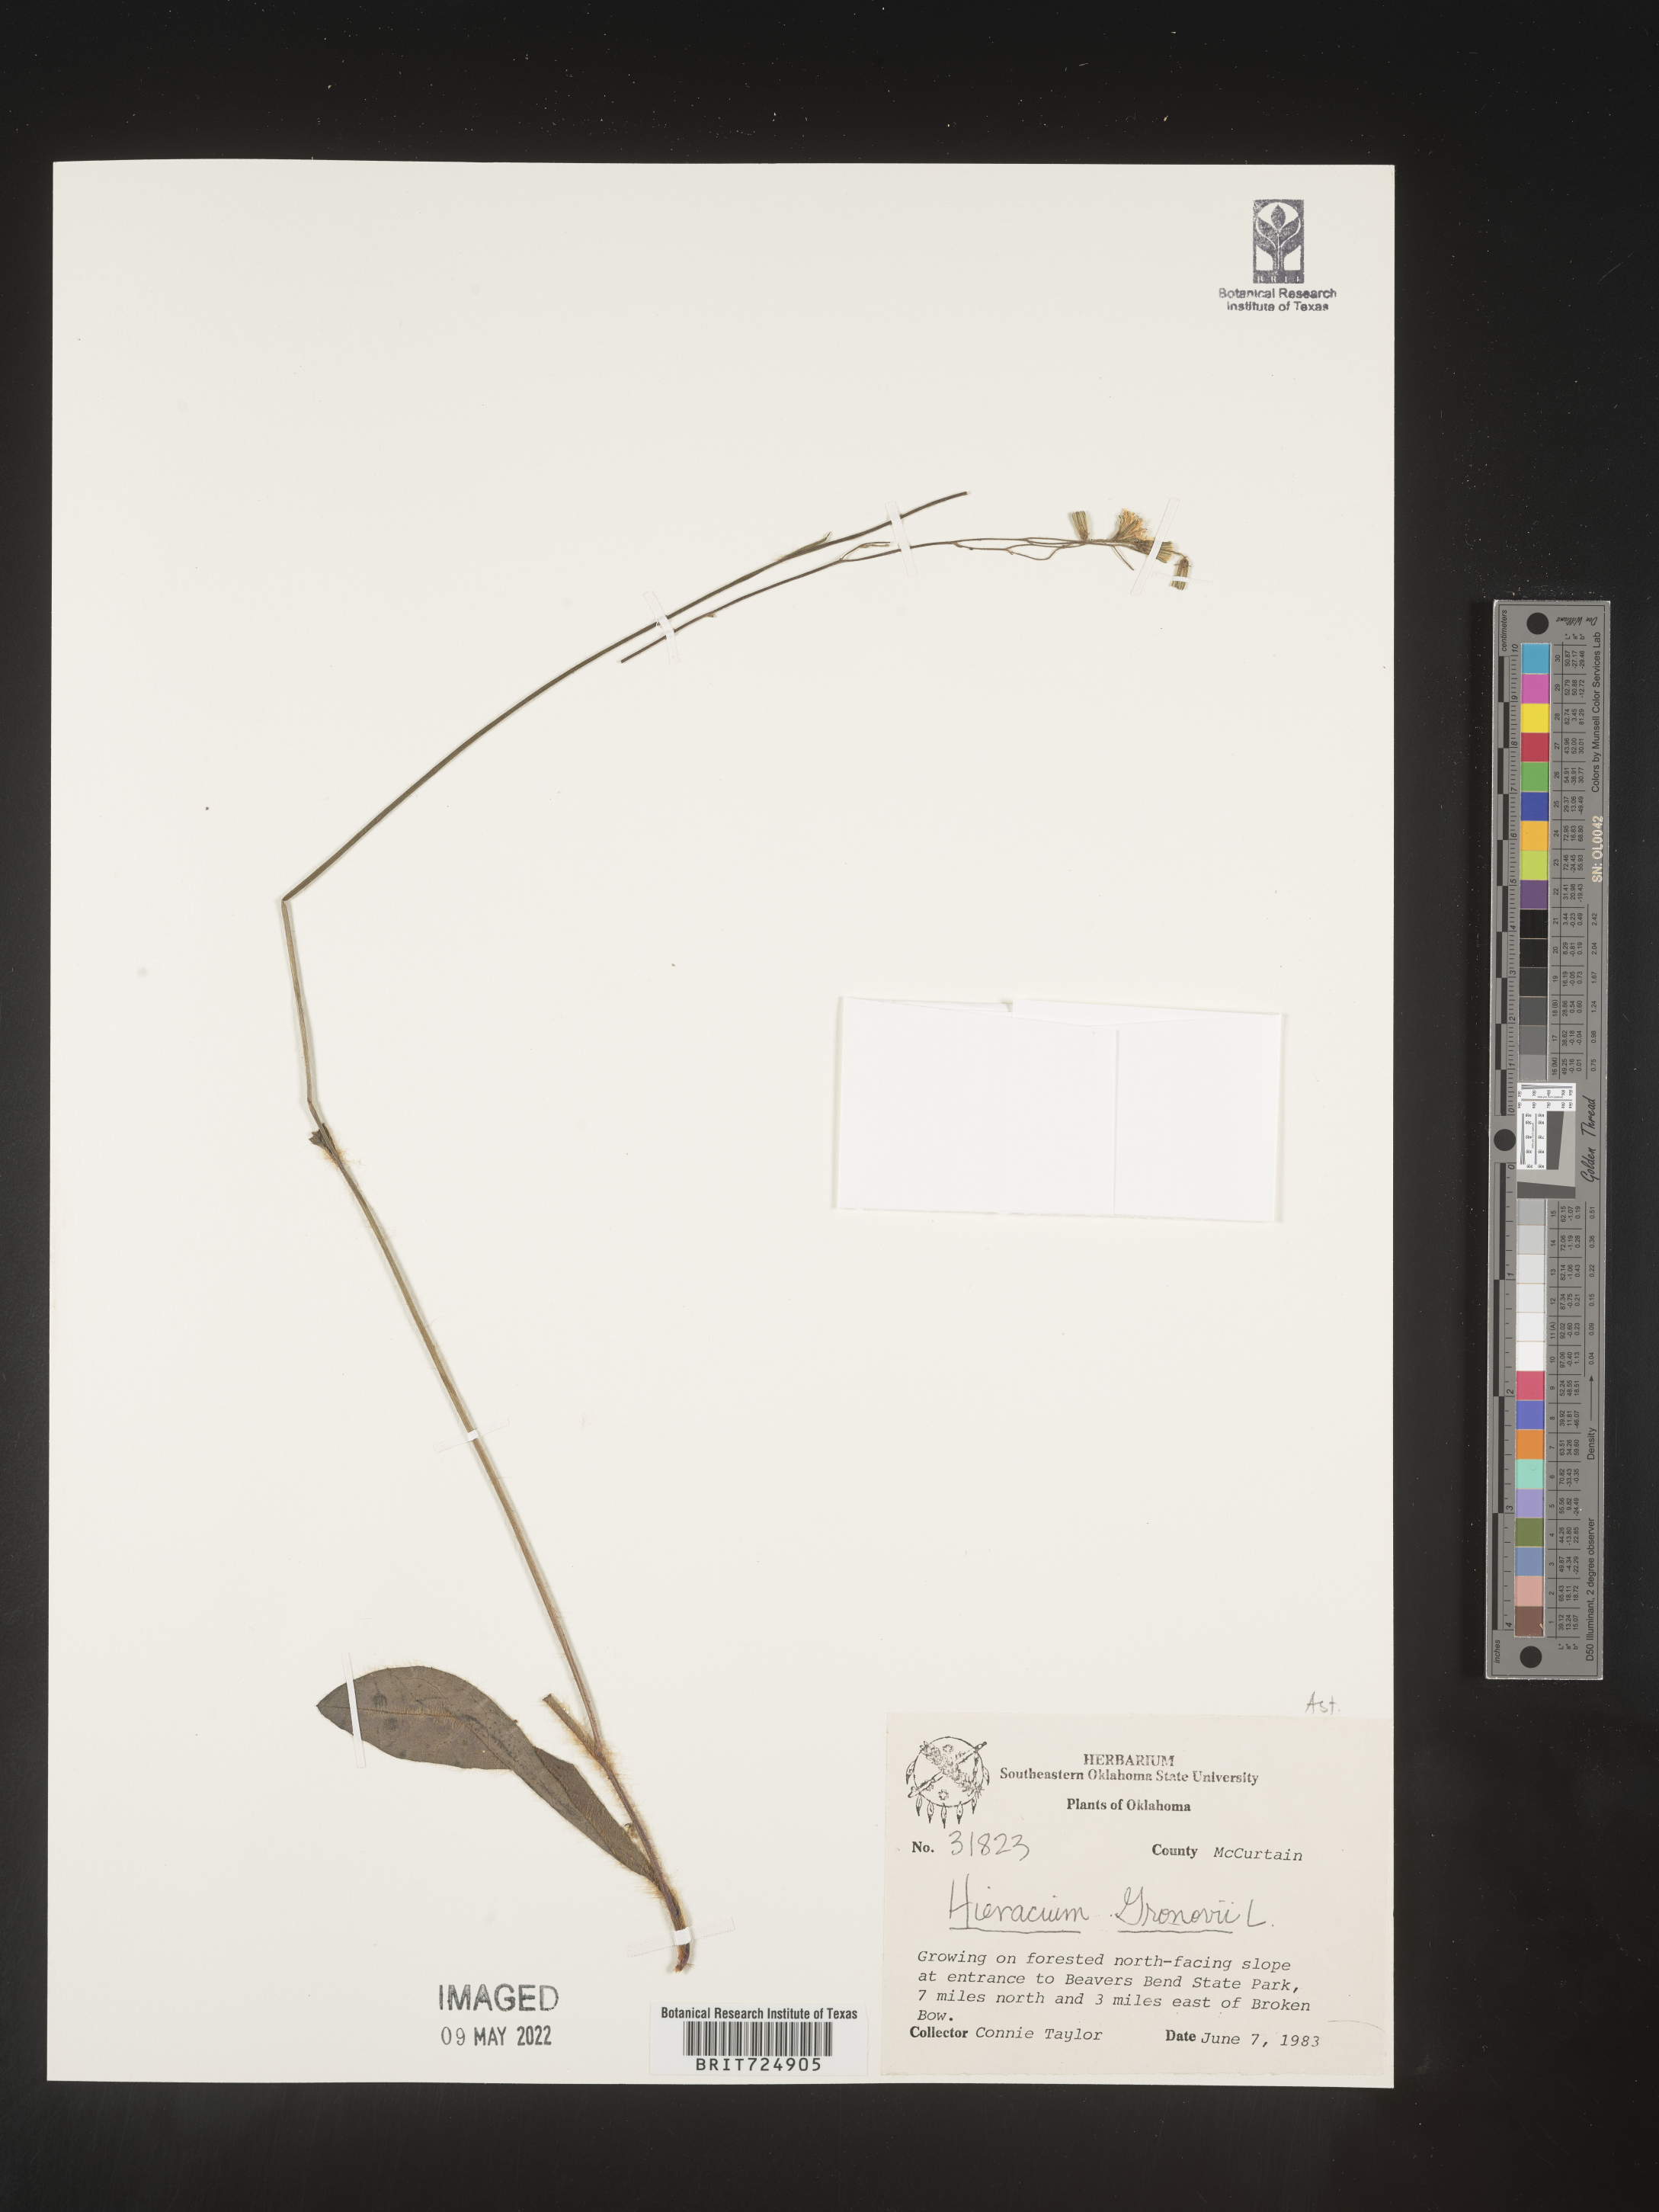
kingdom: Plantae
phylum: Tracheophyta
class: Magnoliopsida
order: Asterales
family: Asteraceae
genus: Hieracium
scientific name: Hieracium gronovii
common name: Beaked hawkweed
